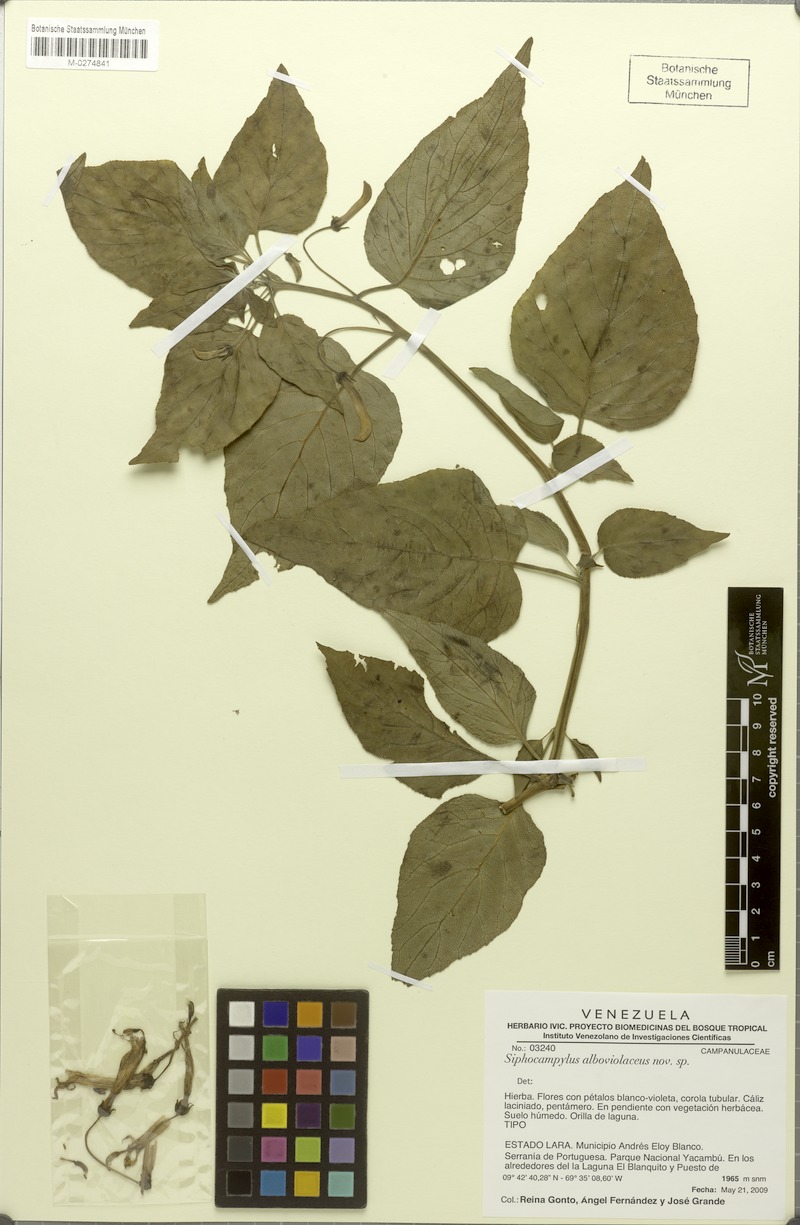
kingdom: Plantae
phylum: Tracheophyta
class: Magnoliopsida
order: Asterales
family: Campanulaceae
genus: Siphocampylus
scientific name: Siphocampylus
